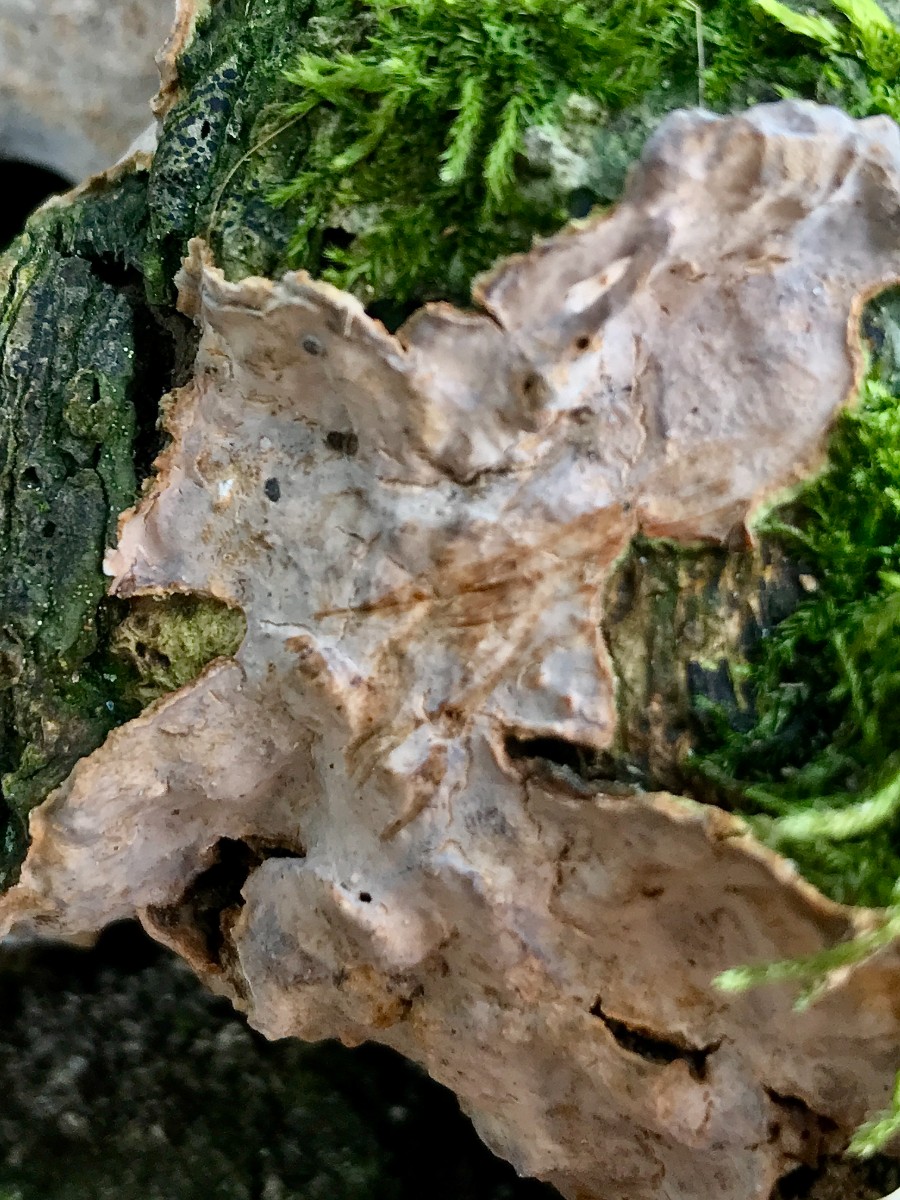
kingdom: Fungi
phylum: Basidiomycota
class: Agaricomycetes
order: Russulales
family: Stereaceae
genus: Stereum
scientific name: Stereum rugosum
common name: rynket lædersvamp
